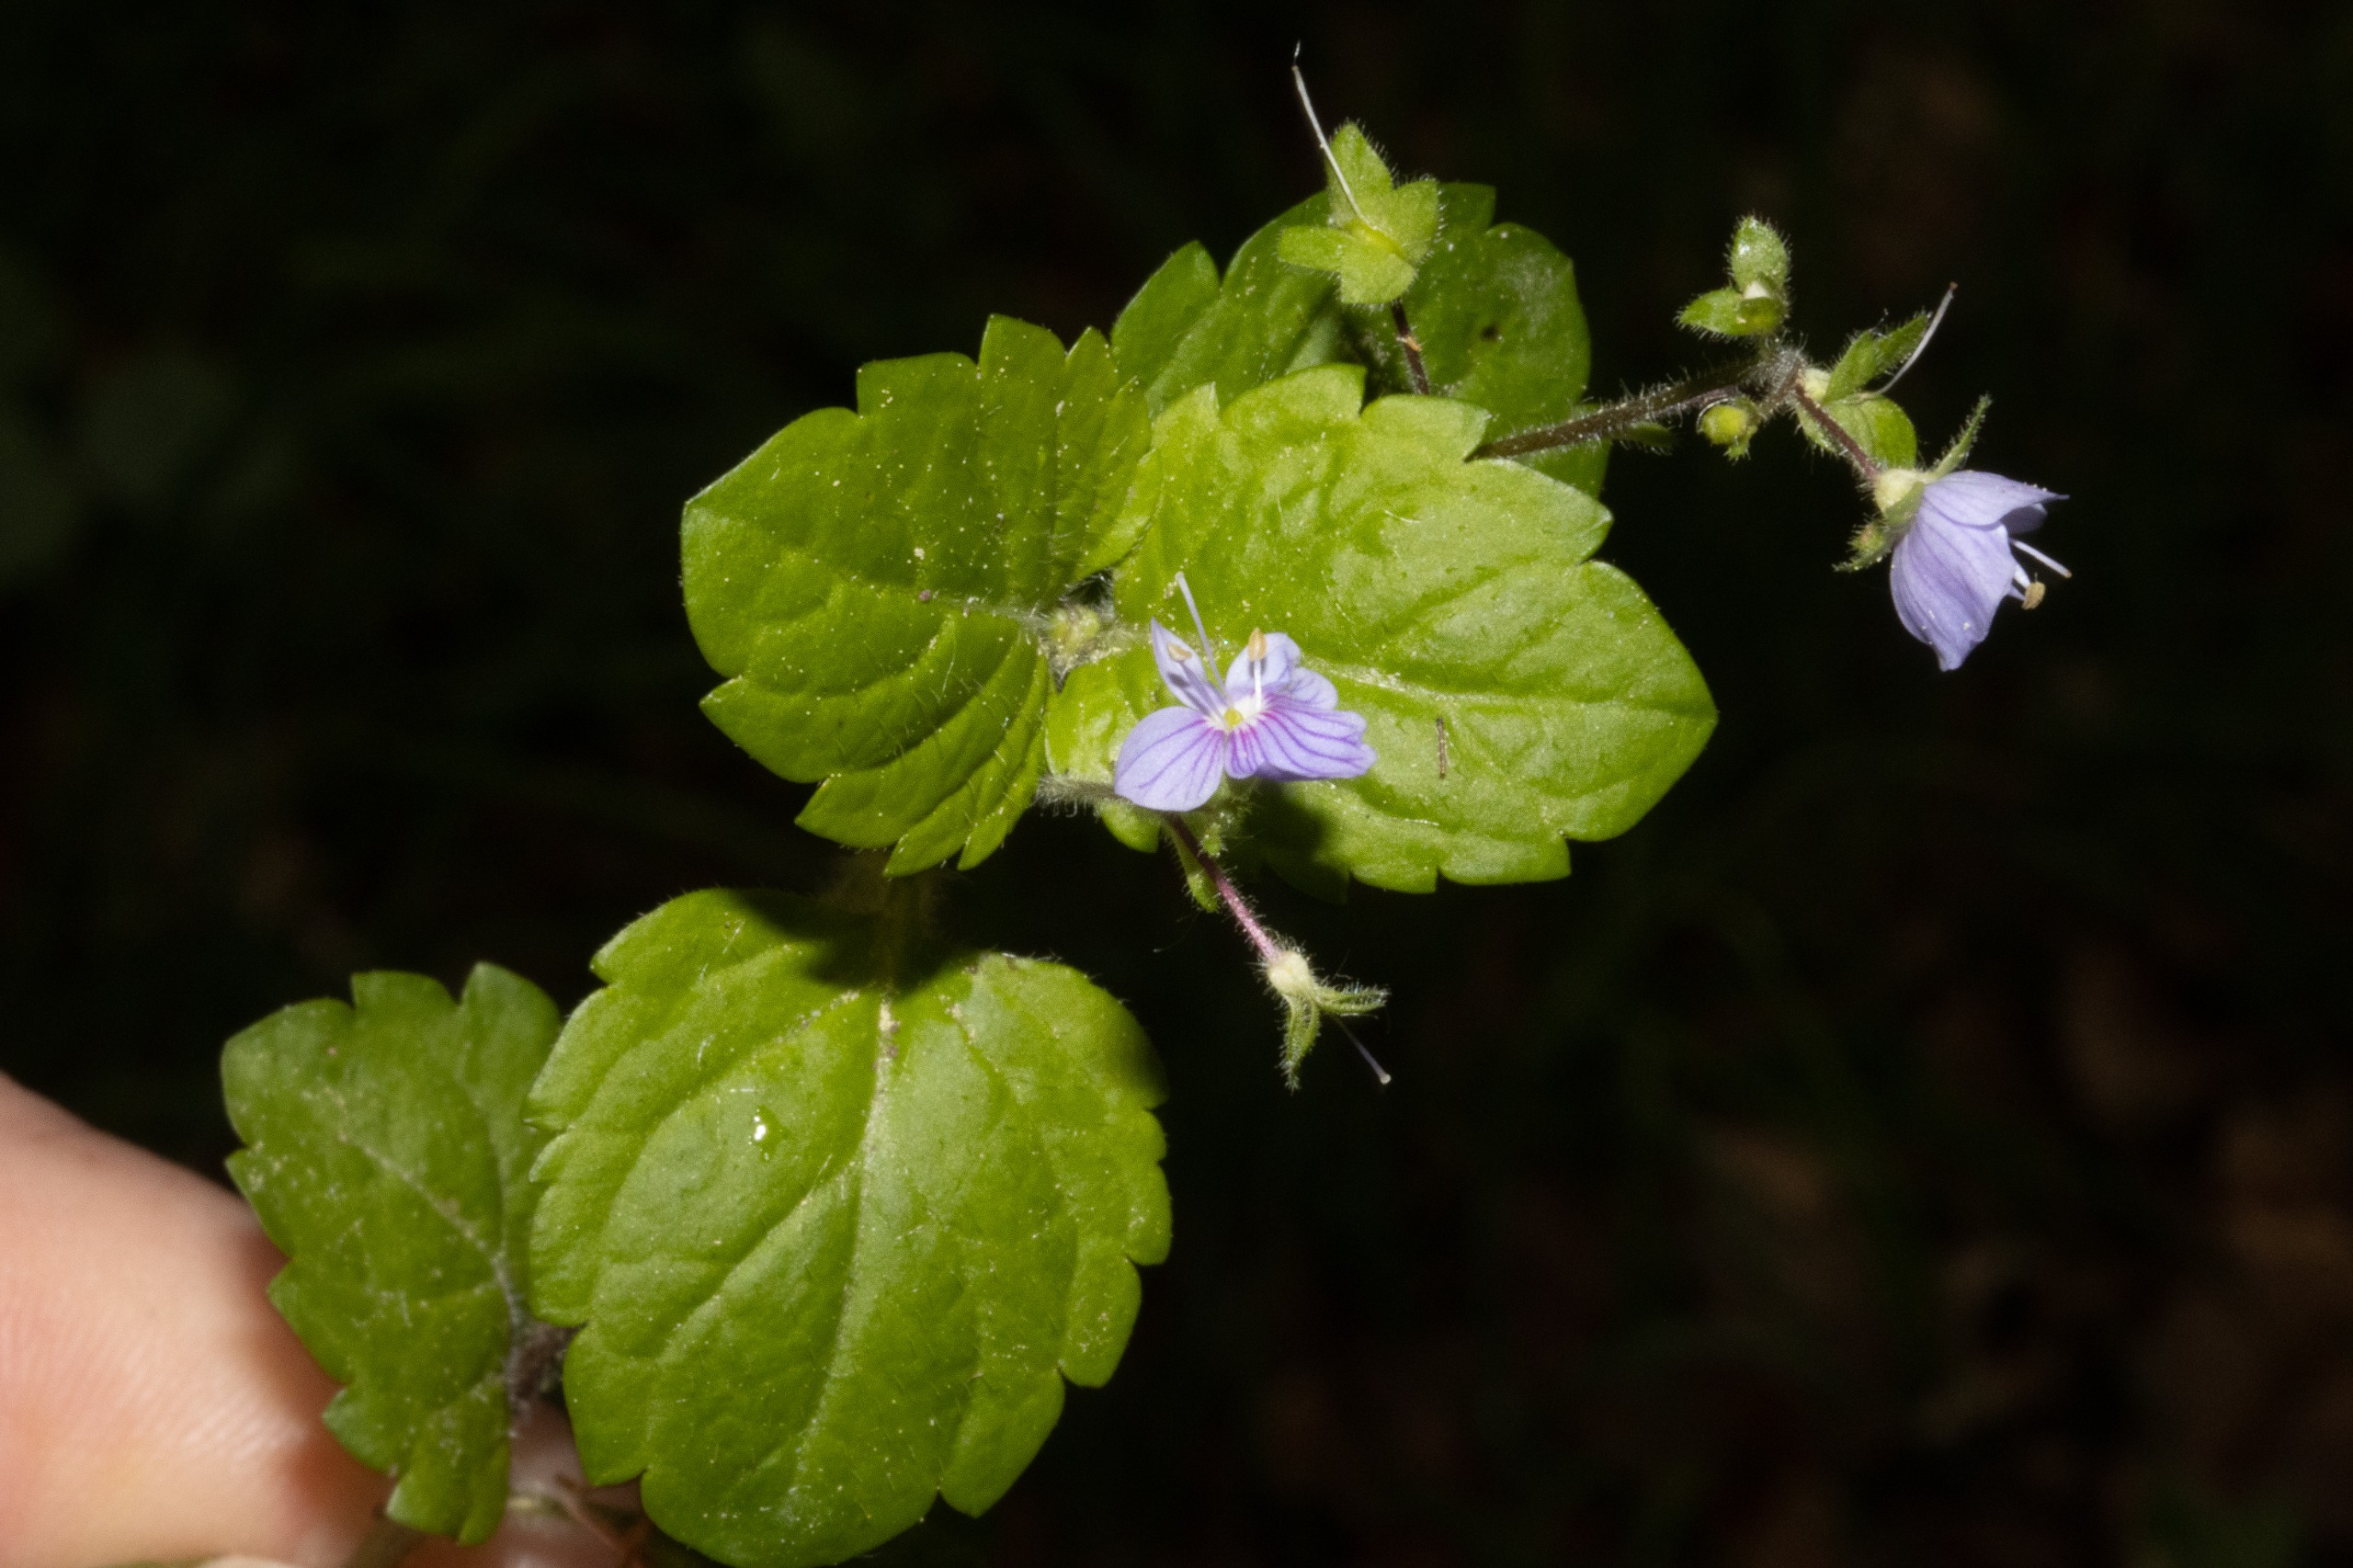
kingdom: Plantae
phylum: Tracheophyta
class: Magnoliopsida
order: Lamiales
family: Plantaginaceae
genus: Veronica
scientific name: Veronica montana
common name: Bjerg-ærenpris
